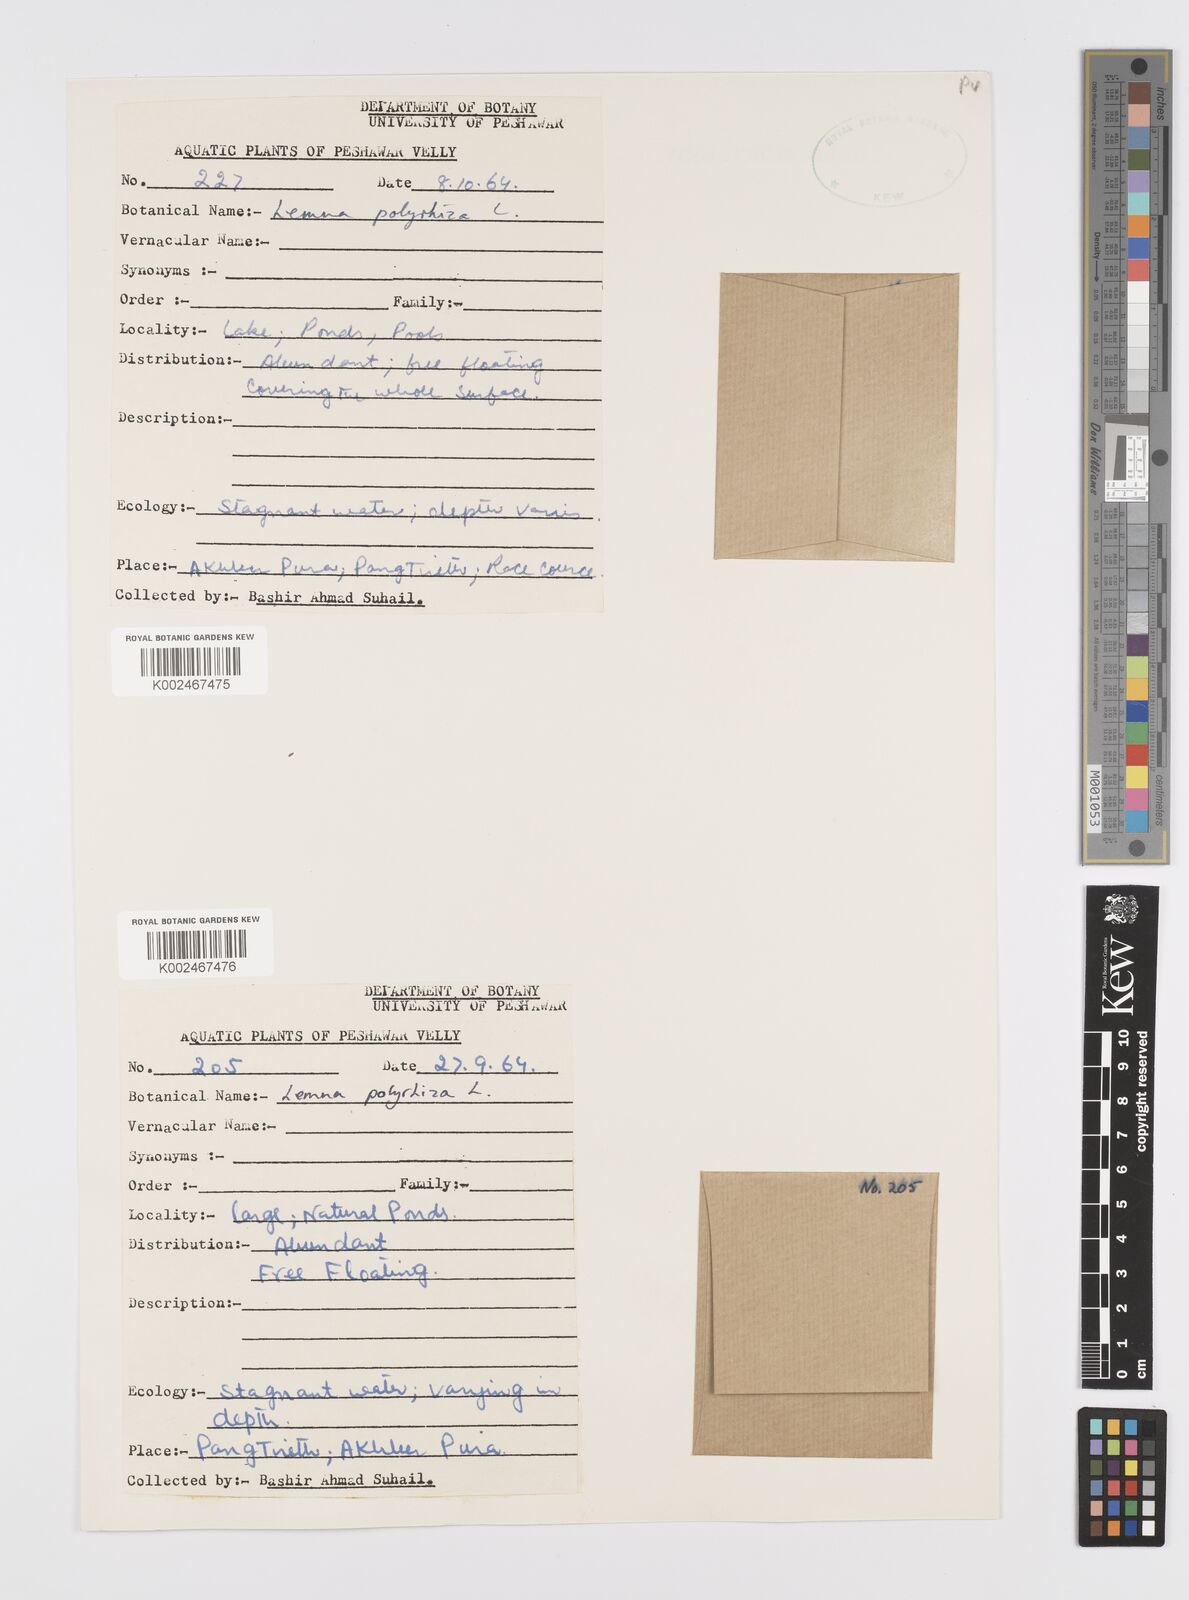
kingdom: Plantae
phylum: Tracheophyta
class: Liliopsida
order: Alismatales
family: Araceae
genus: Spirodela
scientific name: Spirodela polyrhiza
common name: Great duckweed
